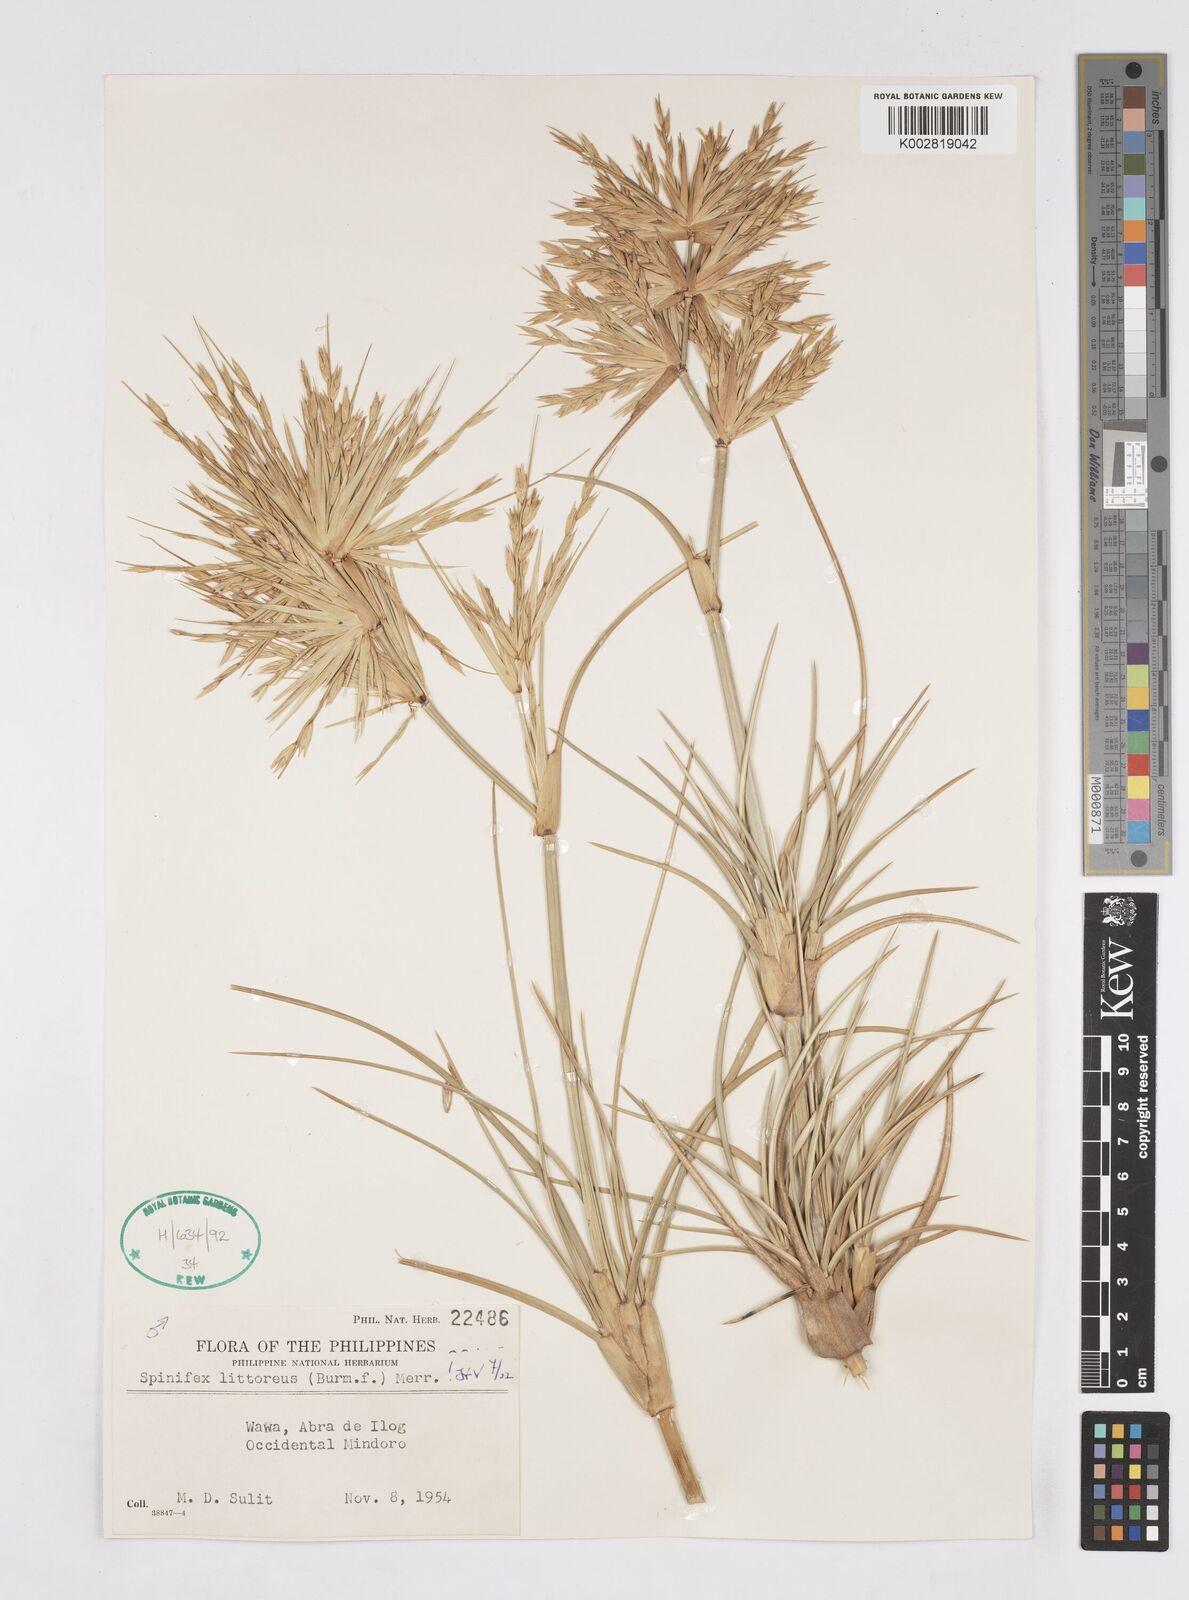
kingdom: Plantae
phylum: Tracheophyta
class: Liliopsida
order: Poales
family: Poaceae
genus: Spinifex
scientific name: Spinifex littoreus
